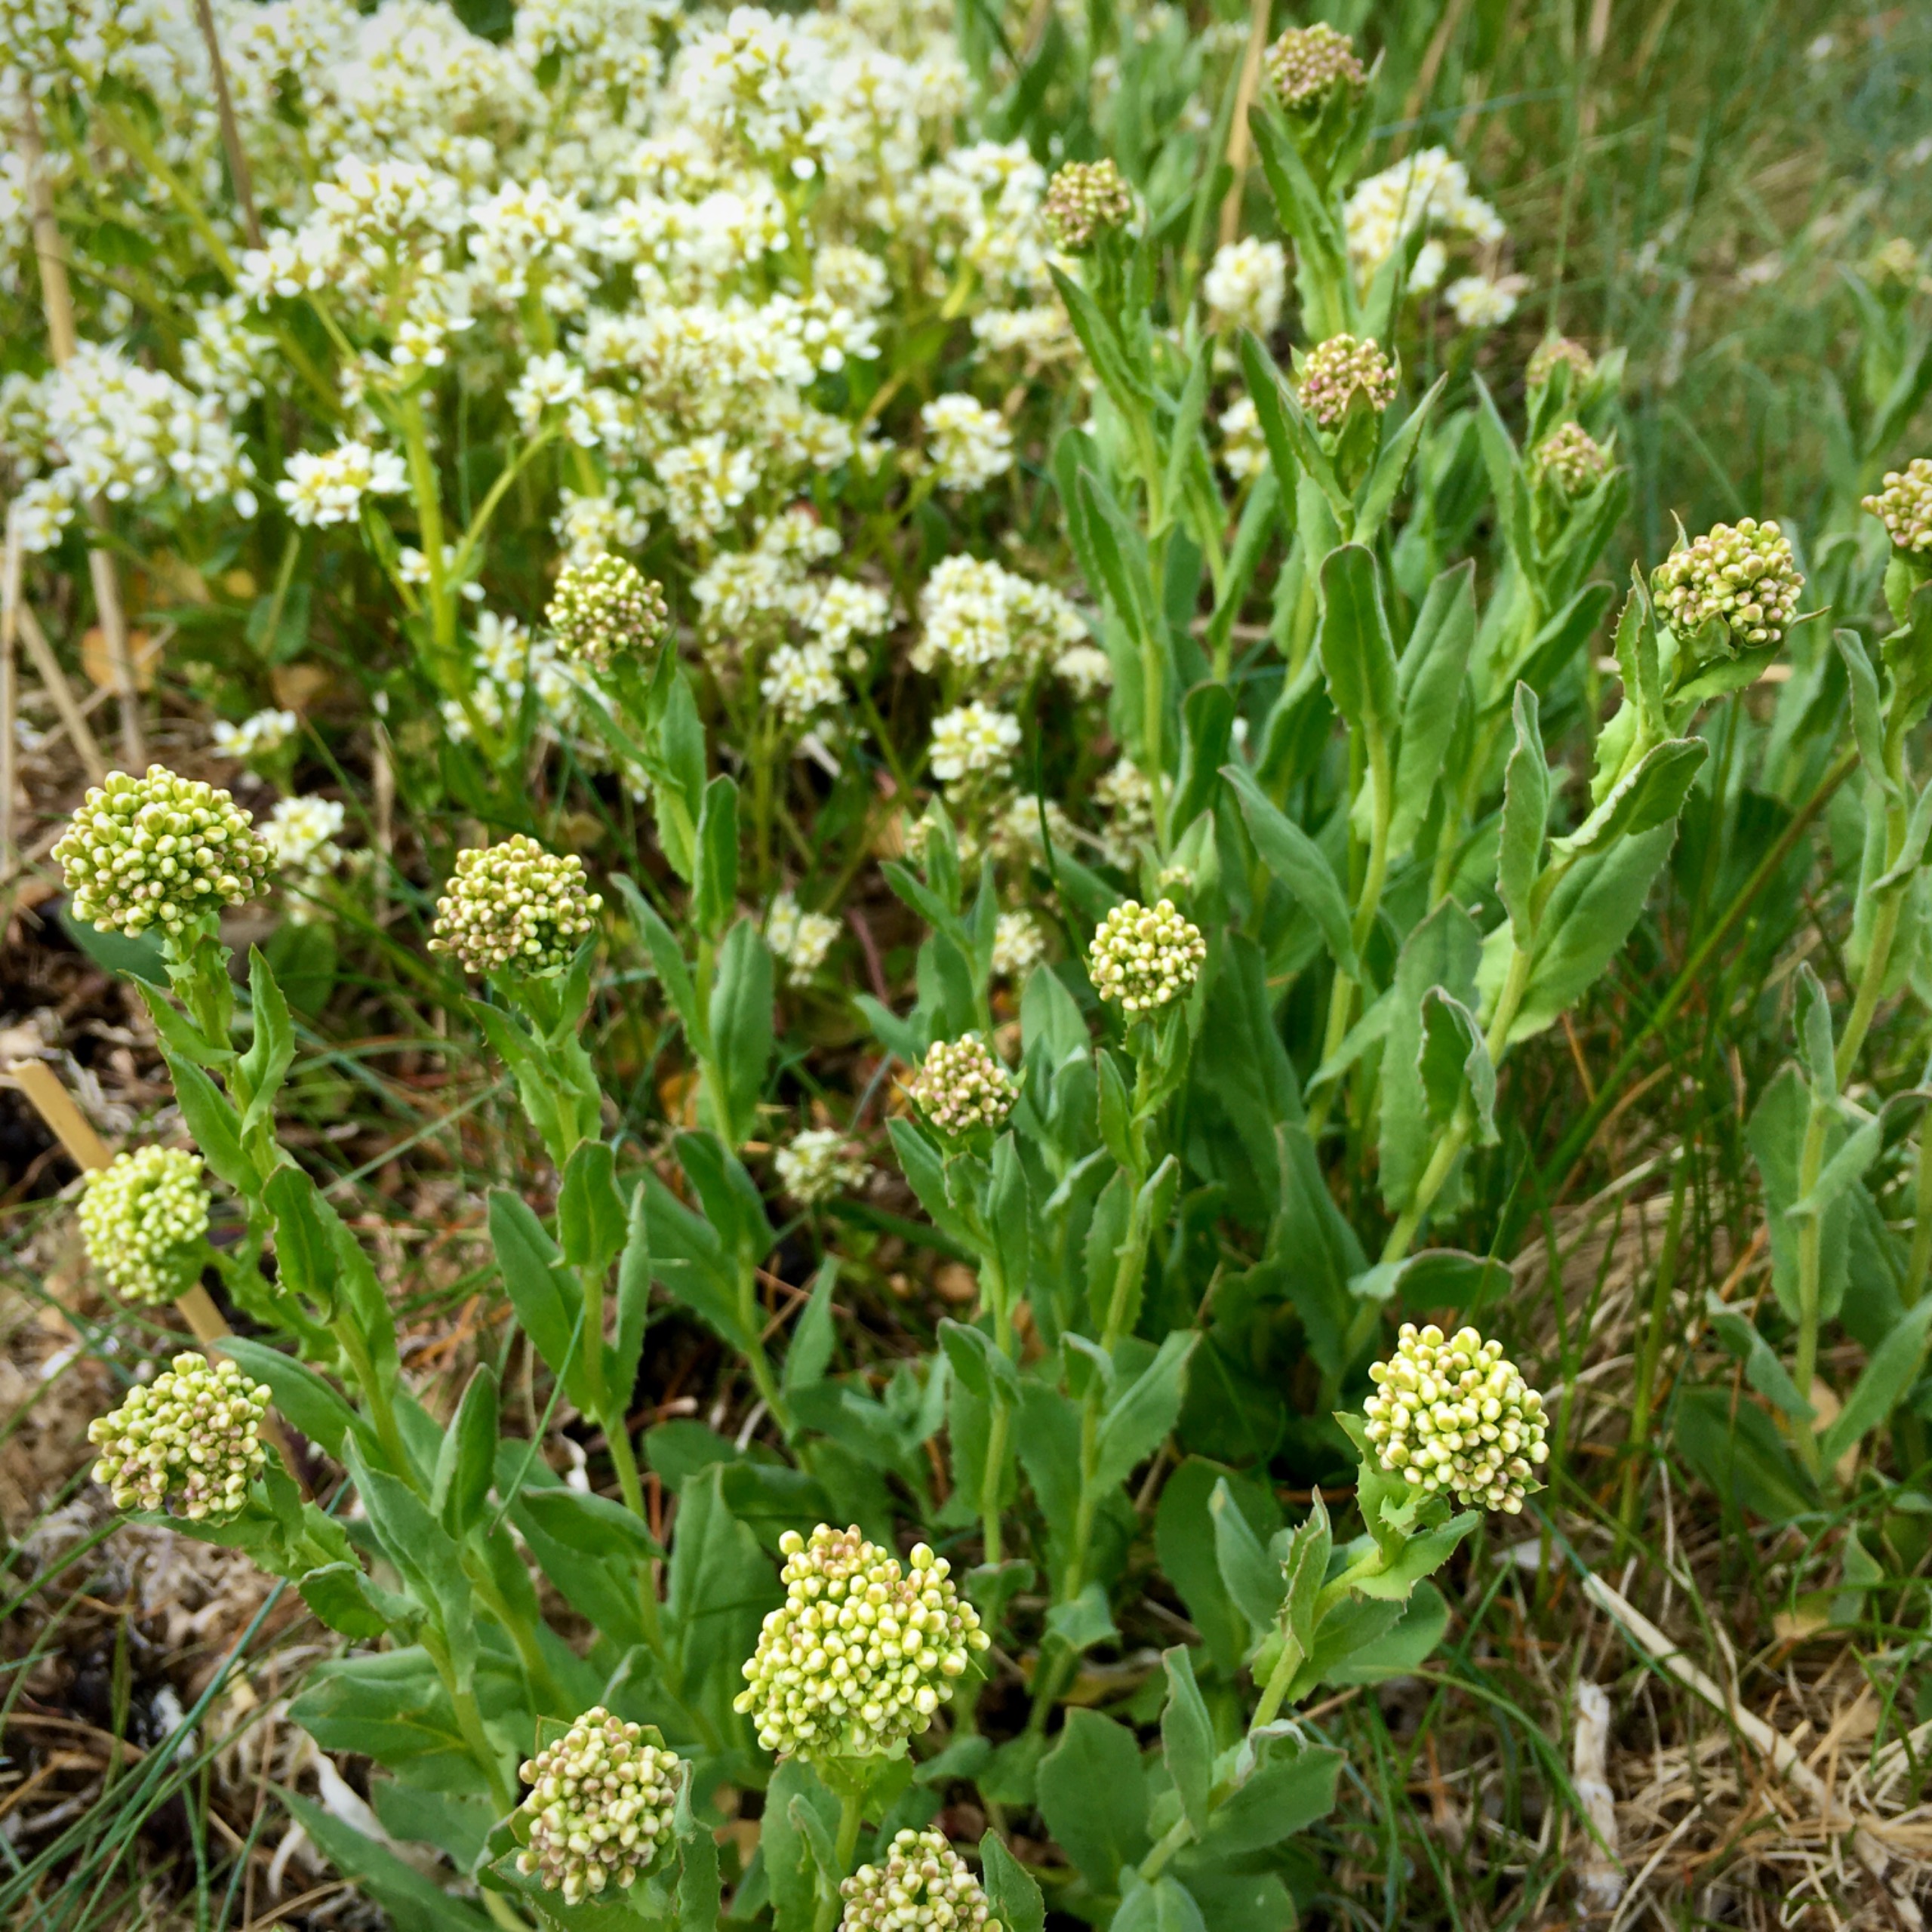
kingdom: Plantae
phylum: Tracheophyta
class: Magnoliopsida
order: Brassicales
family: Brassicaceae
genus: Cochlearia
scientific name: Cochlearia officinalis
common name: Læge-kokleare
